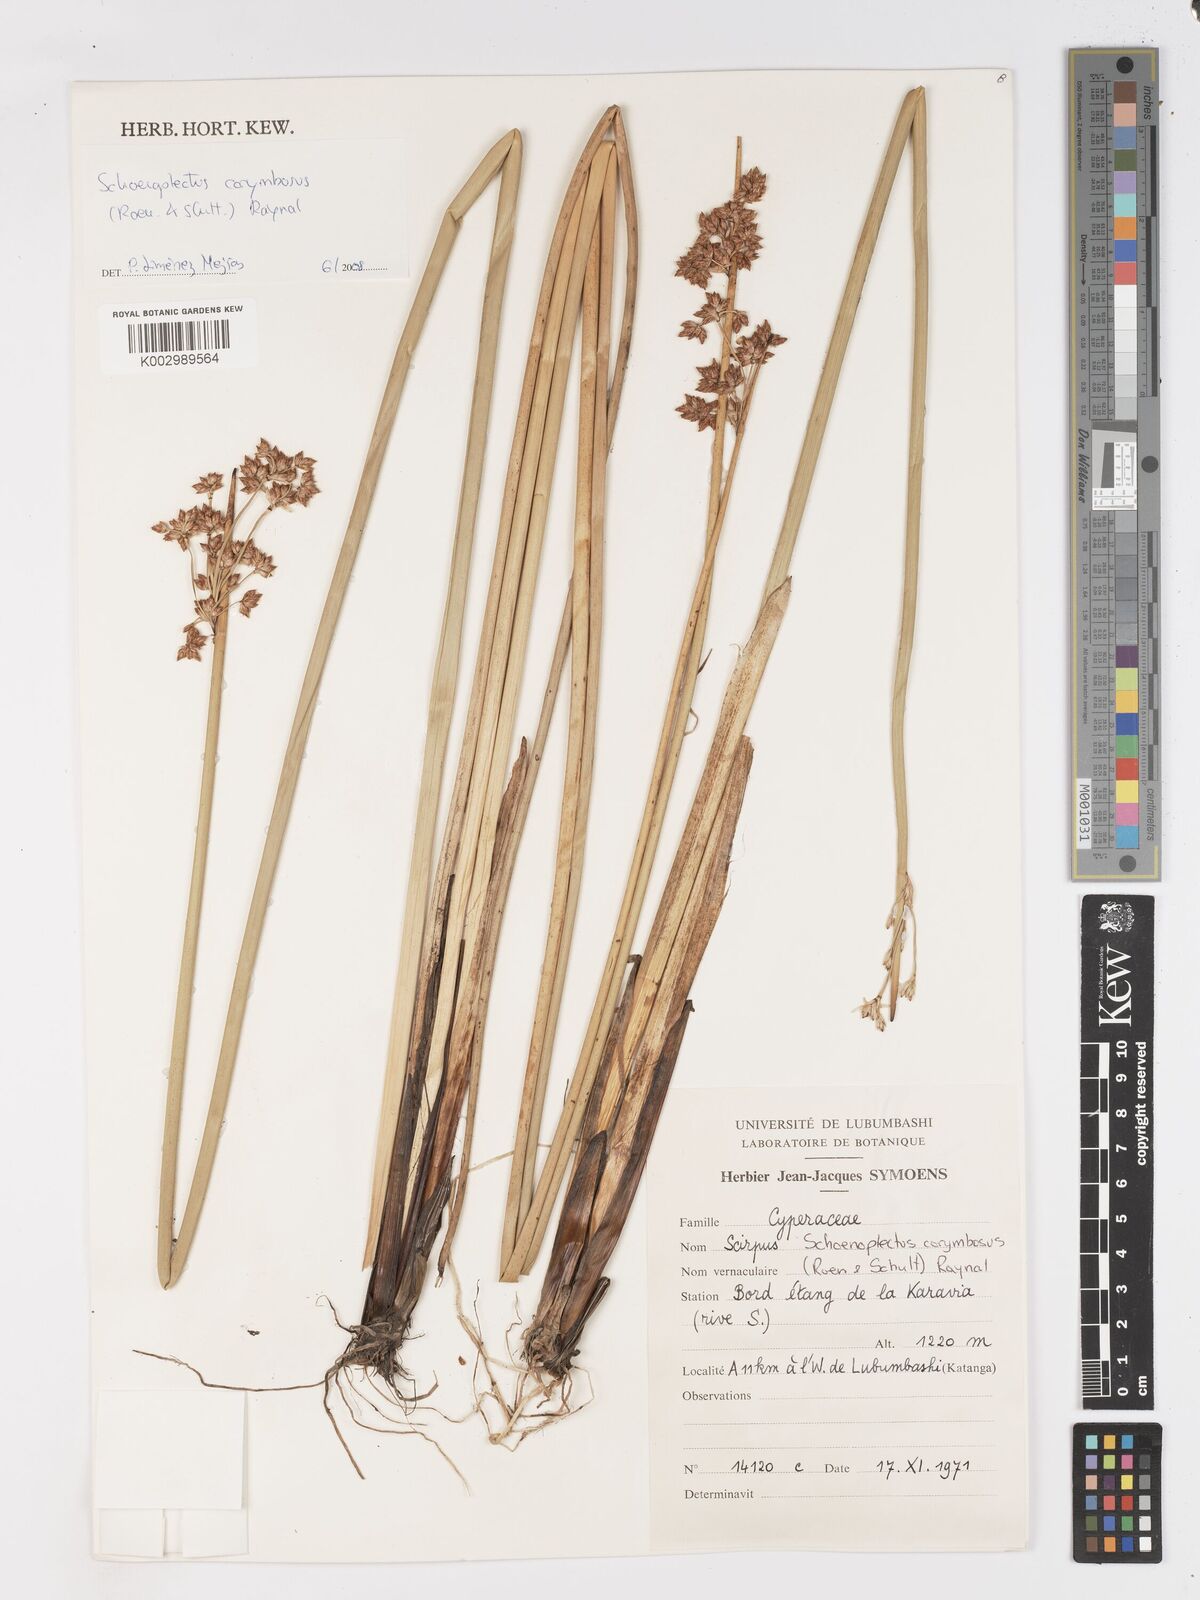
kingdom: Plantae
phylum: Tracheophyta
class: Liliopsida
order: Poales
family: Cyperaceae
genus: Schoenoplectiella
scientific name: Schoenoplectiella corymbosa
